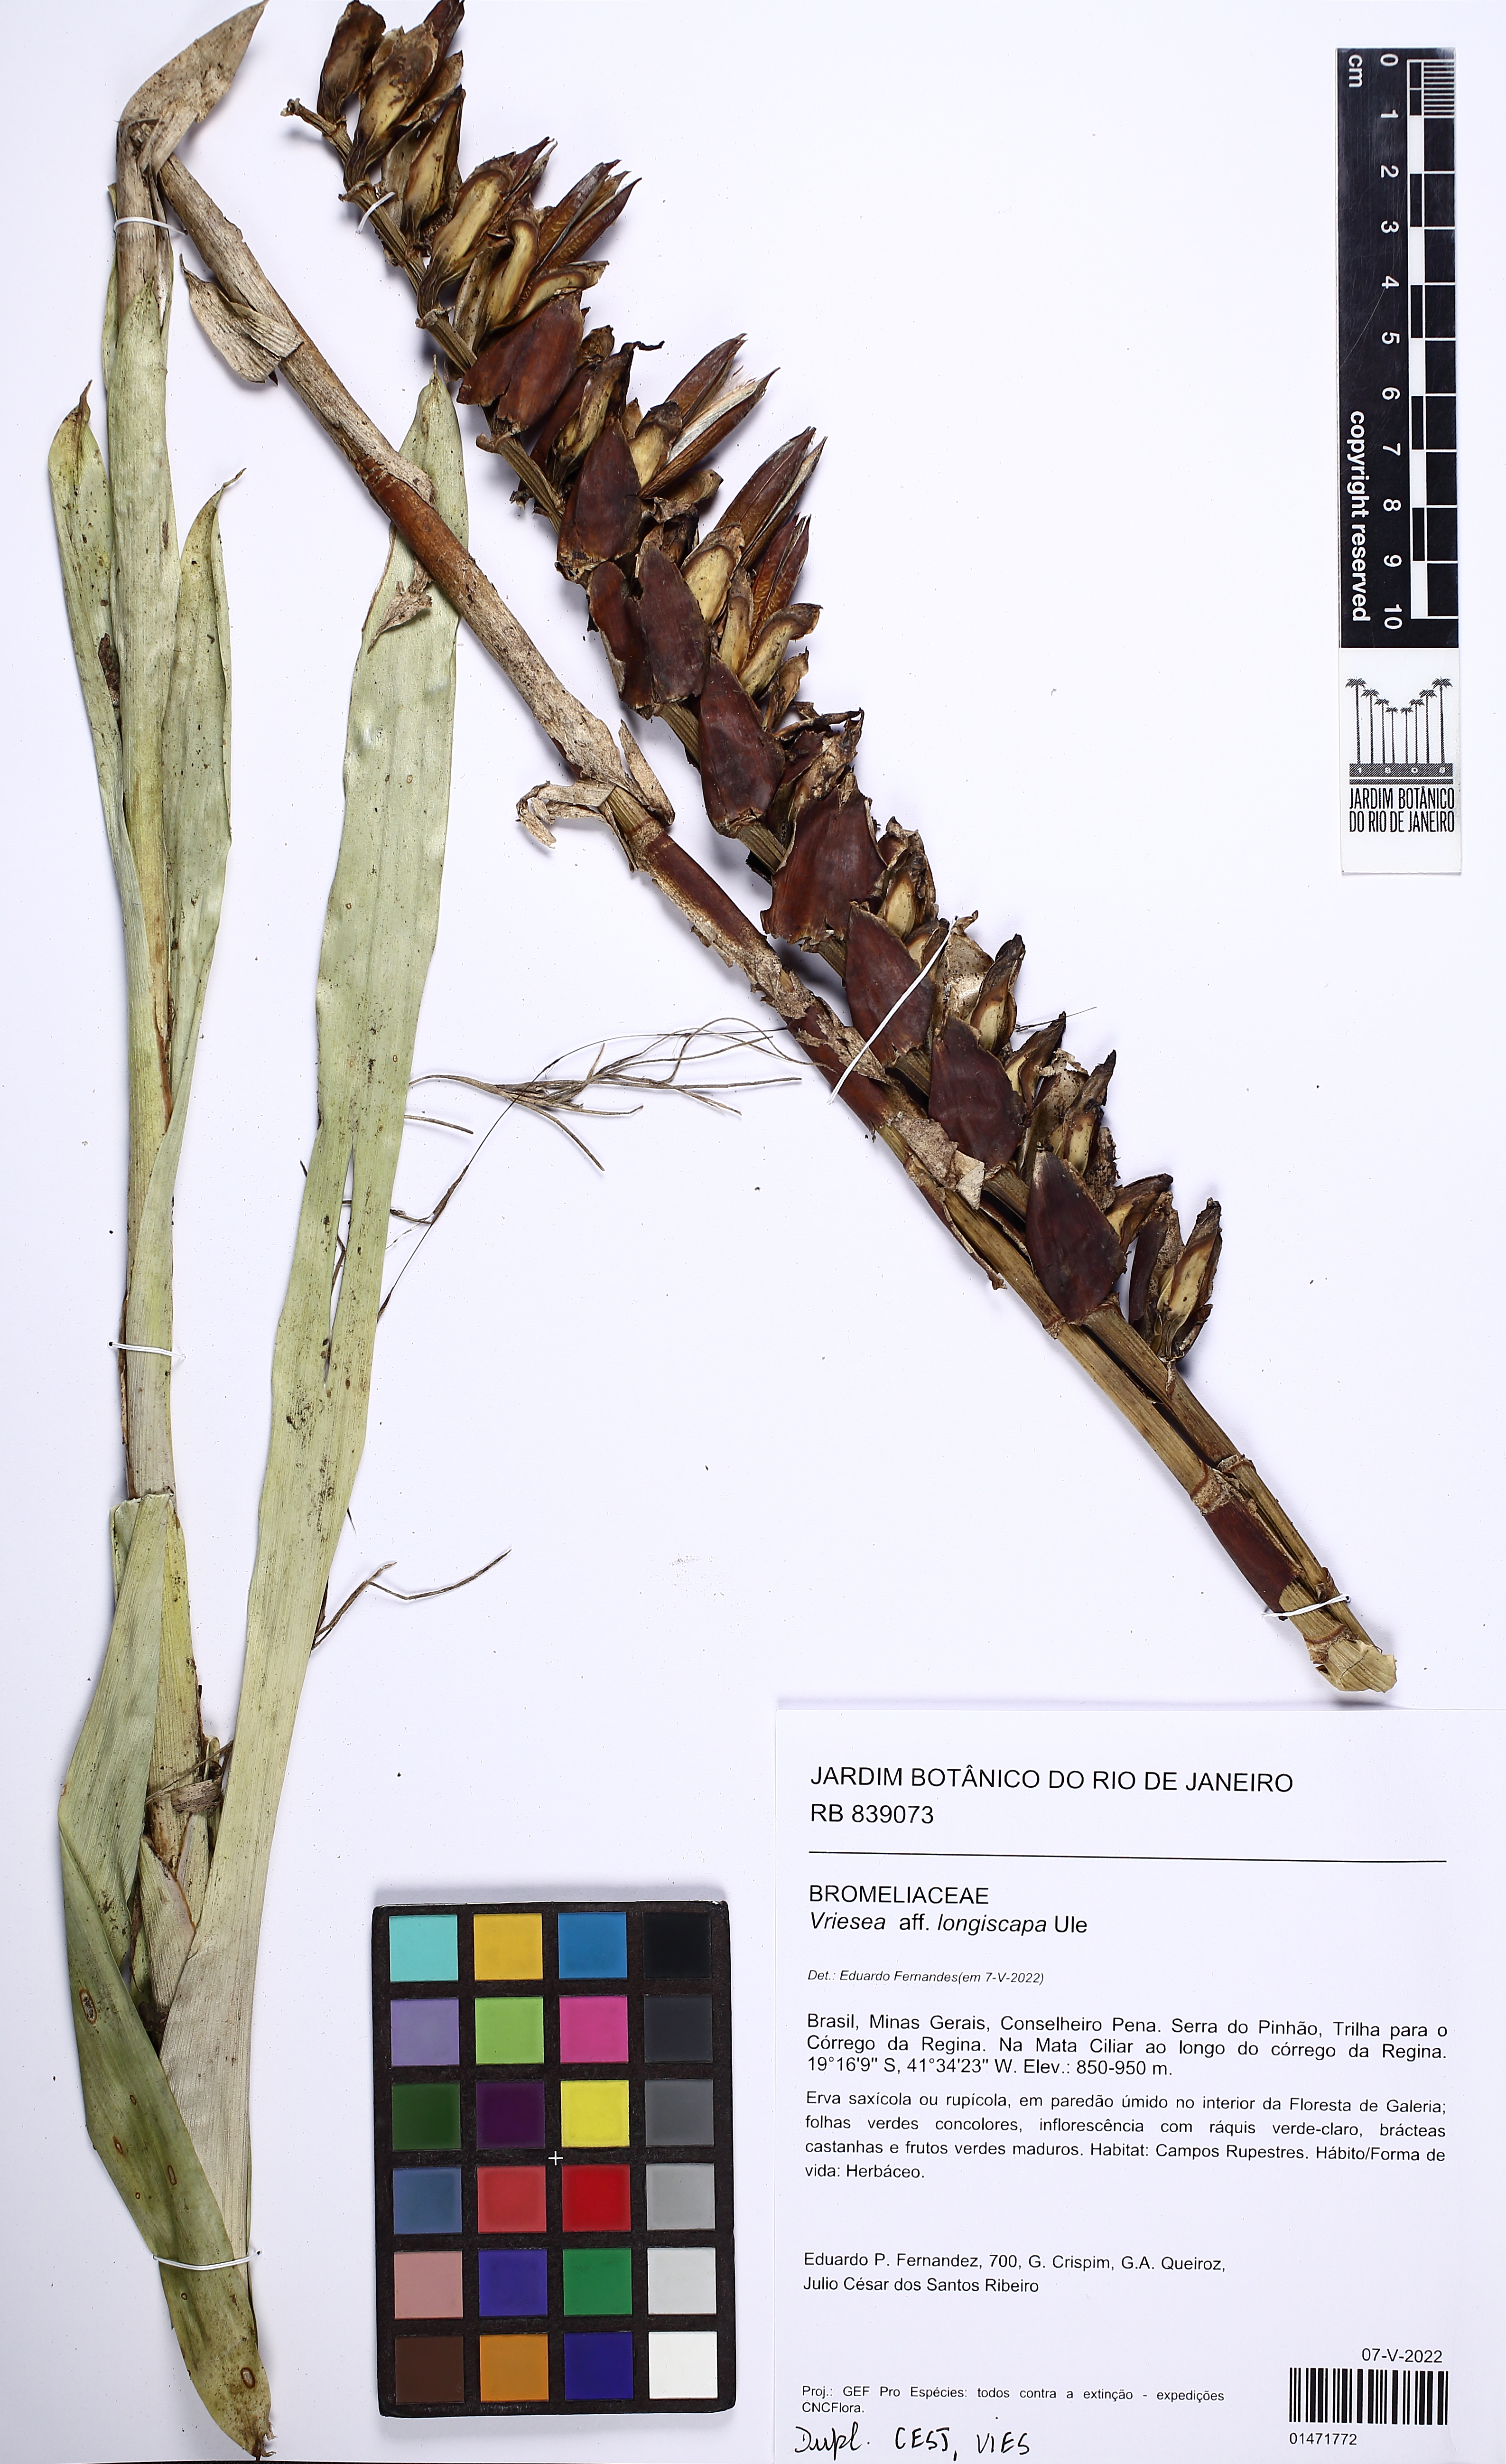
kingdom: Plantae
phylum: Tracheophyta
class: Liliopsida
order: Poales
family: Bromeliaceae
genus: Vriesea
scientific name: Vriesea longiscapa
